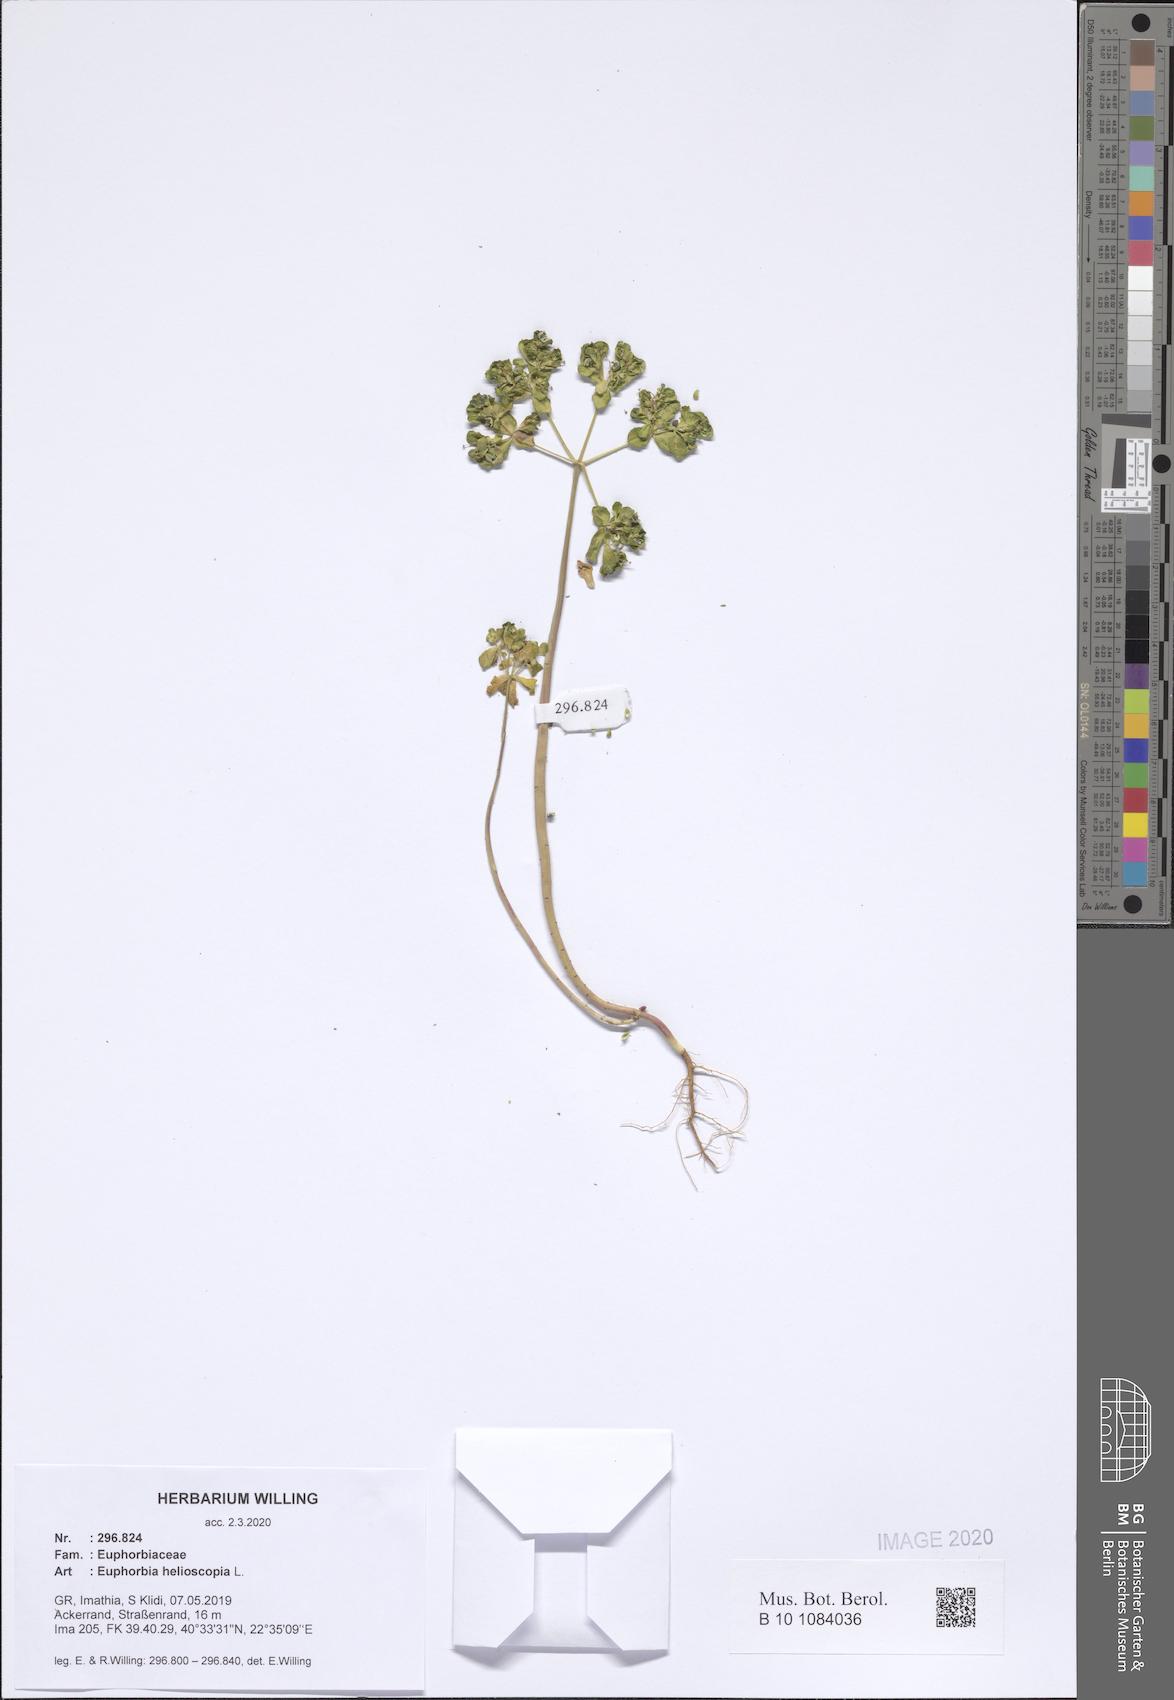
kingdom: Plantae
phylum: Tracheophyta
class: Magnoliopsida
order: Malpighiales
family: Euphorbiaceae
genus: Euphorbia
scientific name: Euphorbia helioscopia
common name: Sun spurge
